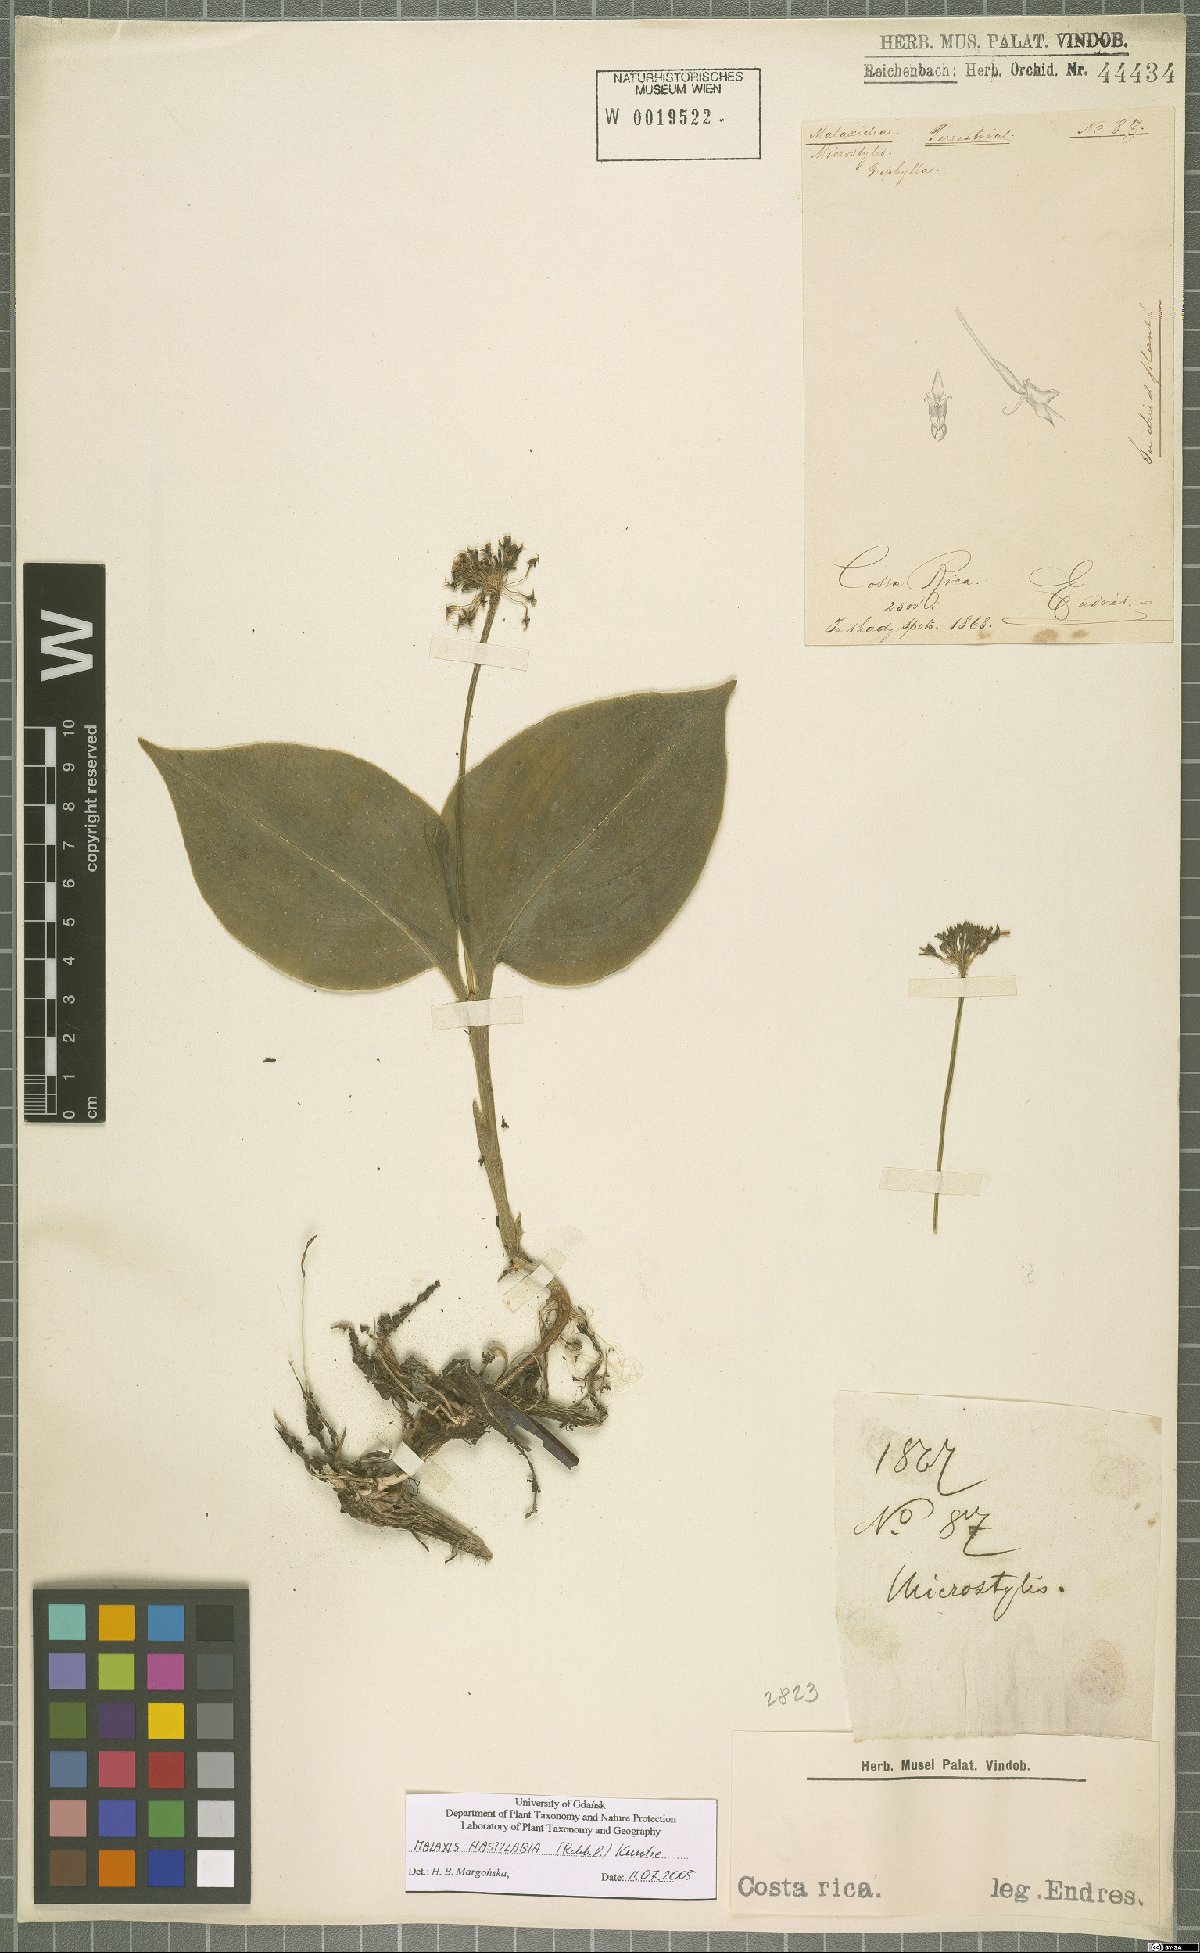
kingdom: Plantae
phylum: Tracheophyta
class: Liliopsida
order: Asparagales
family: Orchidaceae
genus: Malaxis
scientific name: Malaxis excavata
